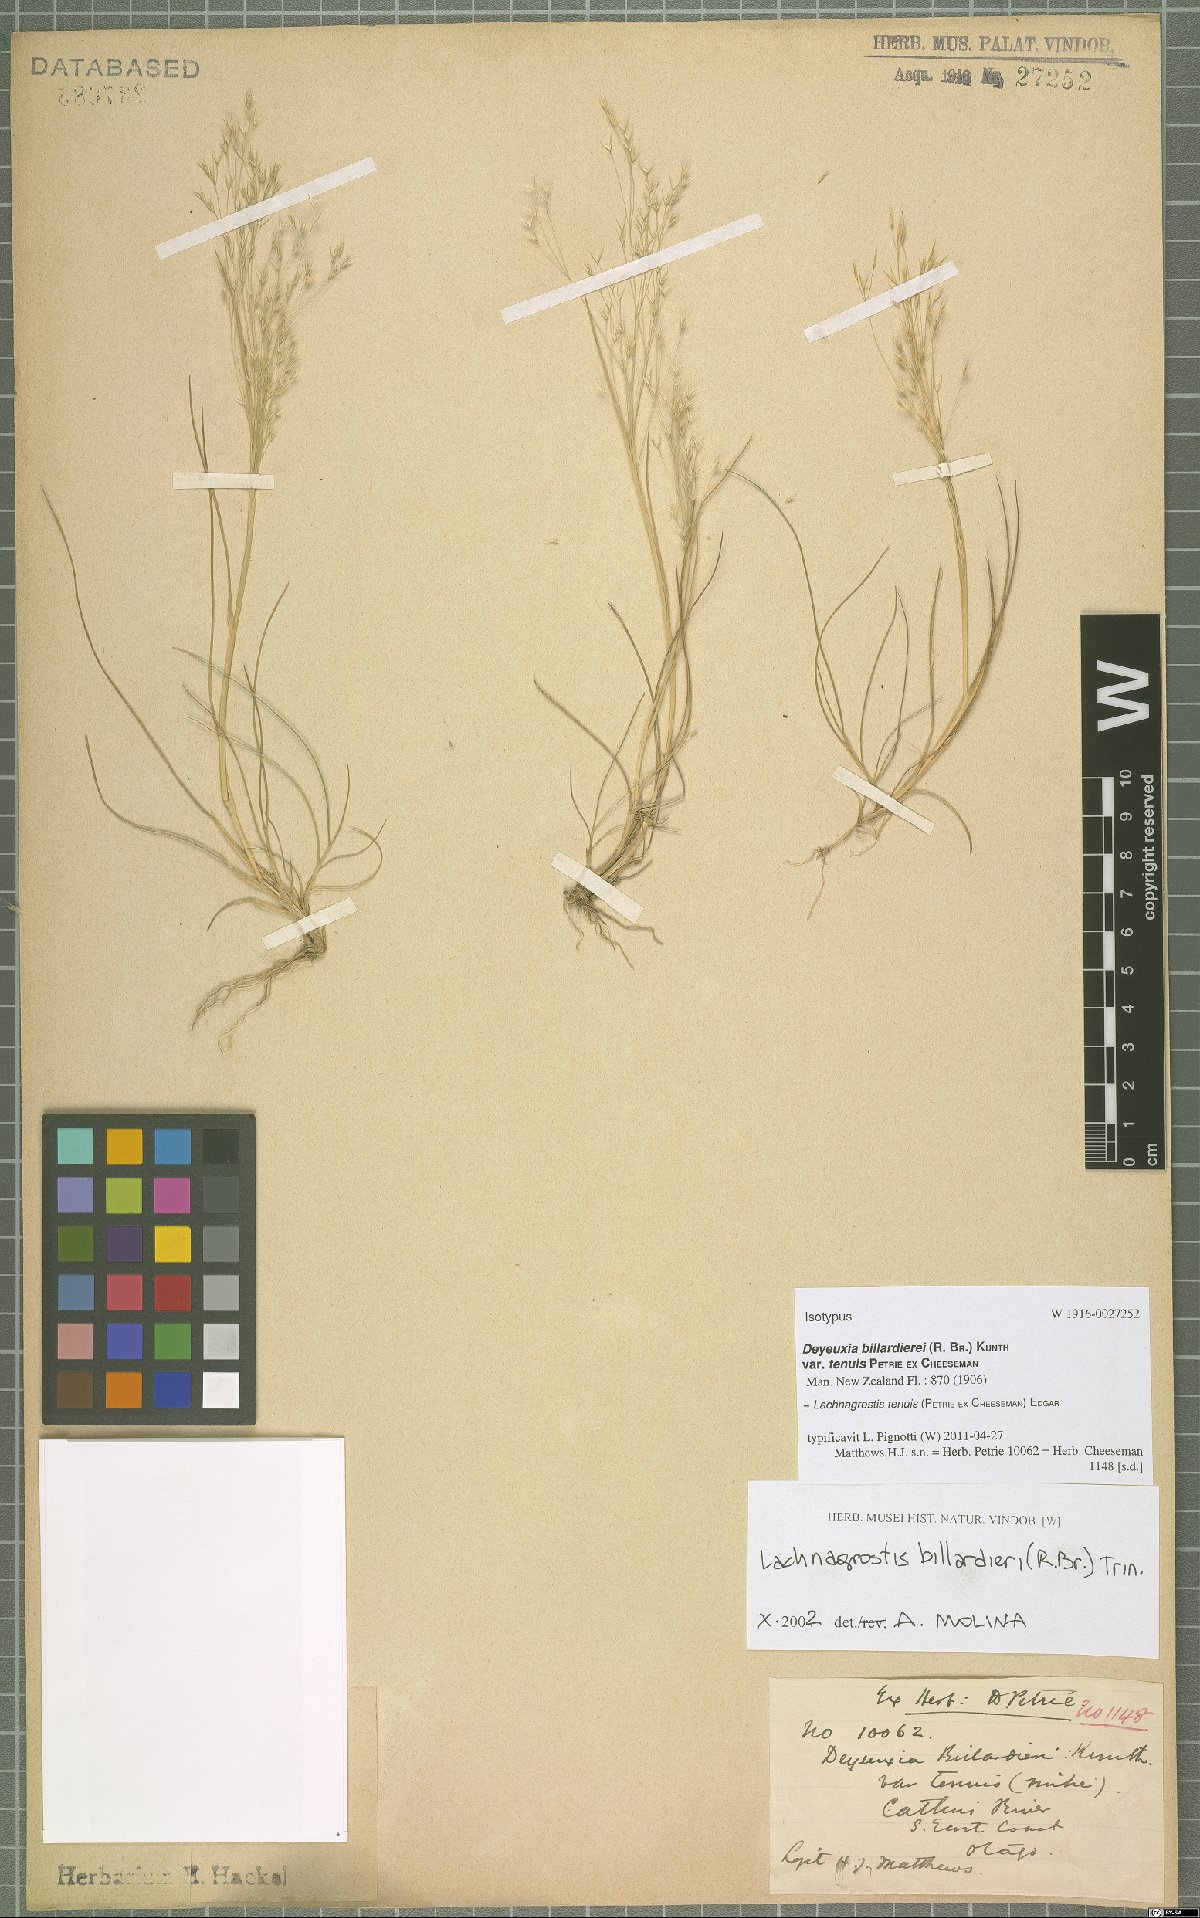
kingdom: Plantae
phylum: Tracheophyta
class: Liliopsida
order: Poales
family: Poaceae
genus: Lachnagrostis
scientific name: Lachnagrostis tenuis
